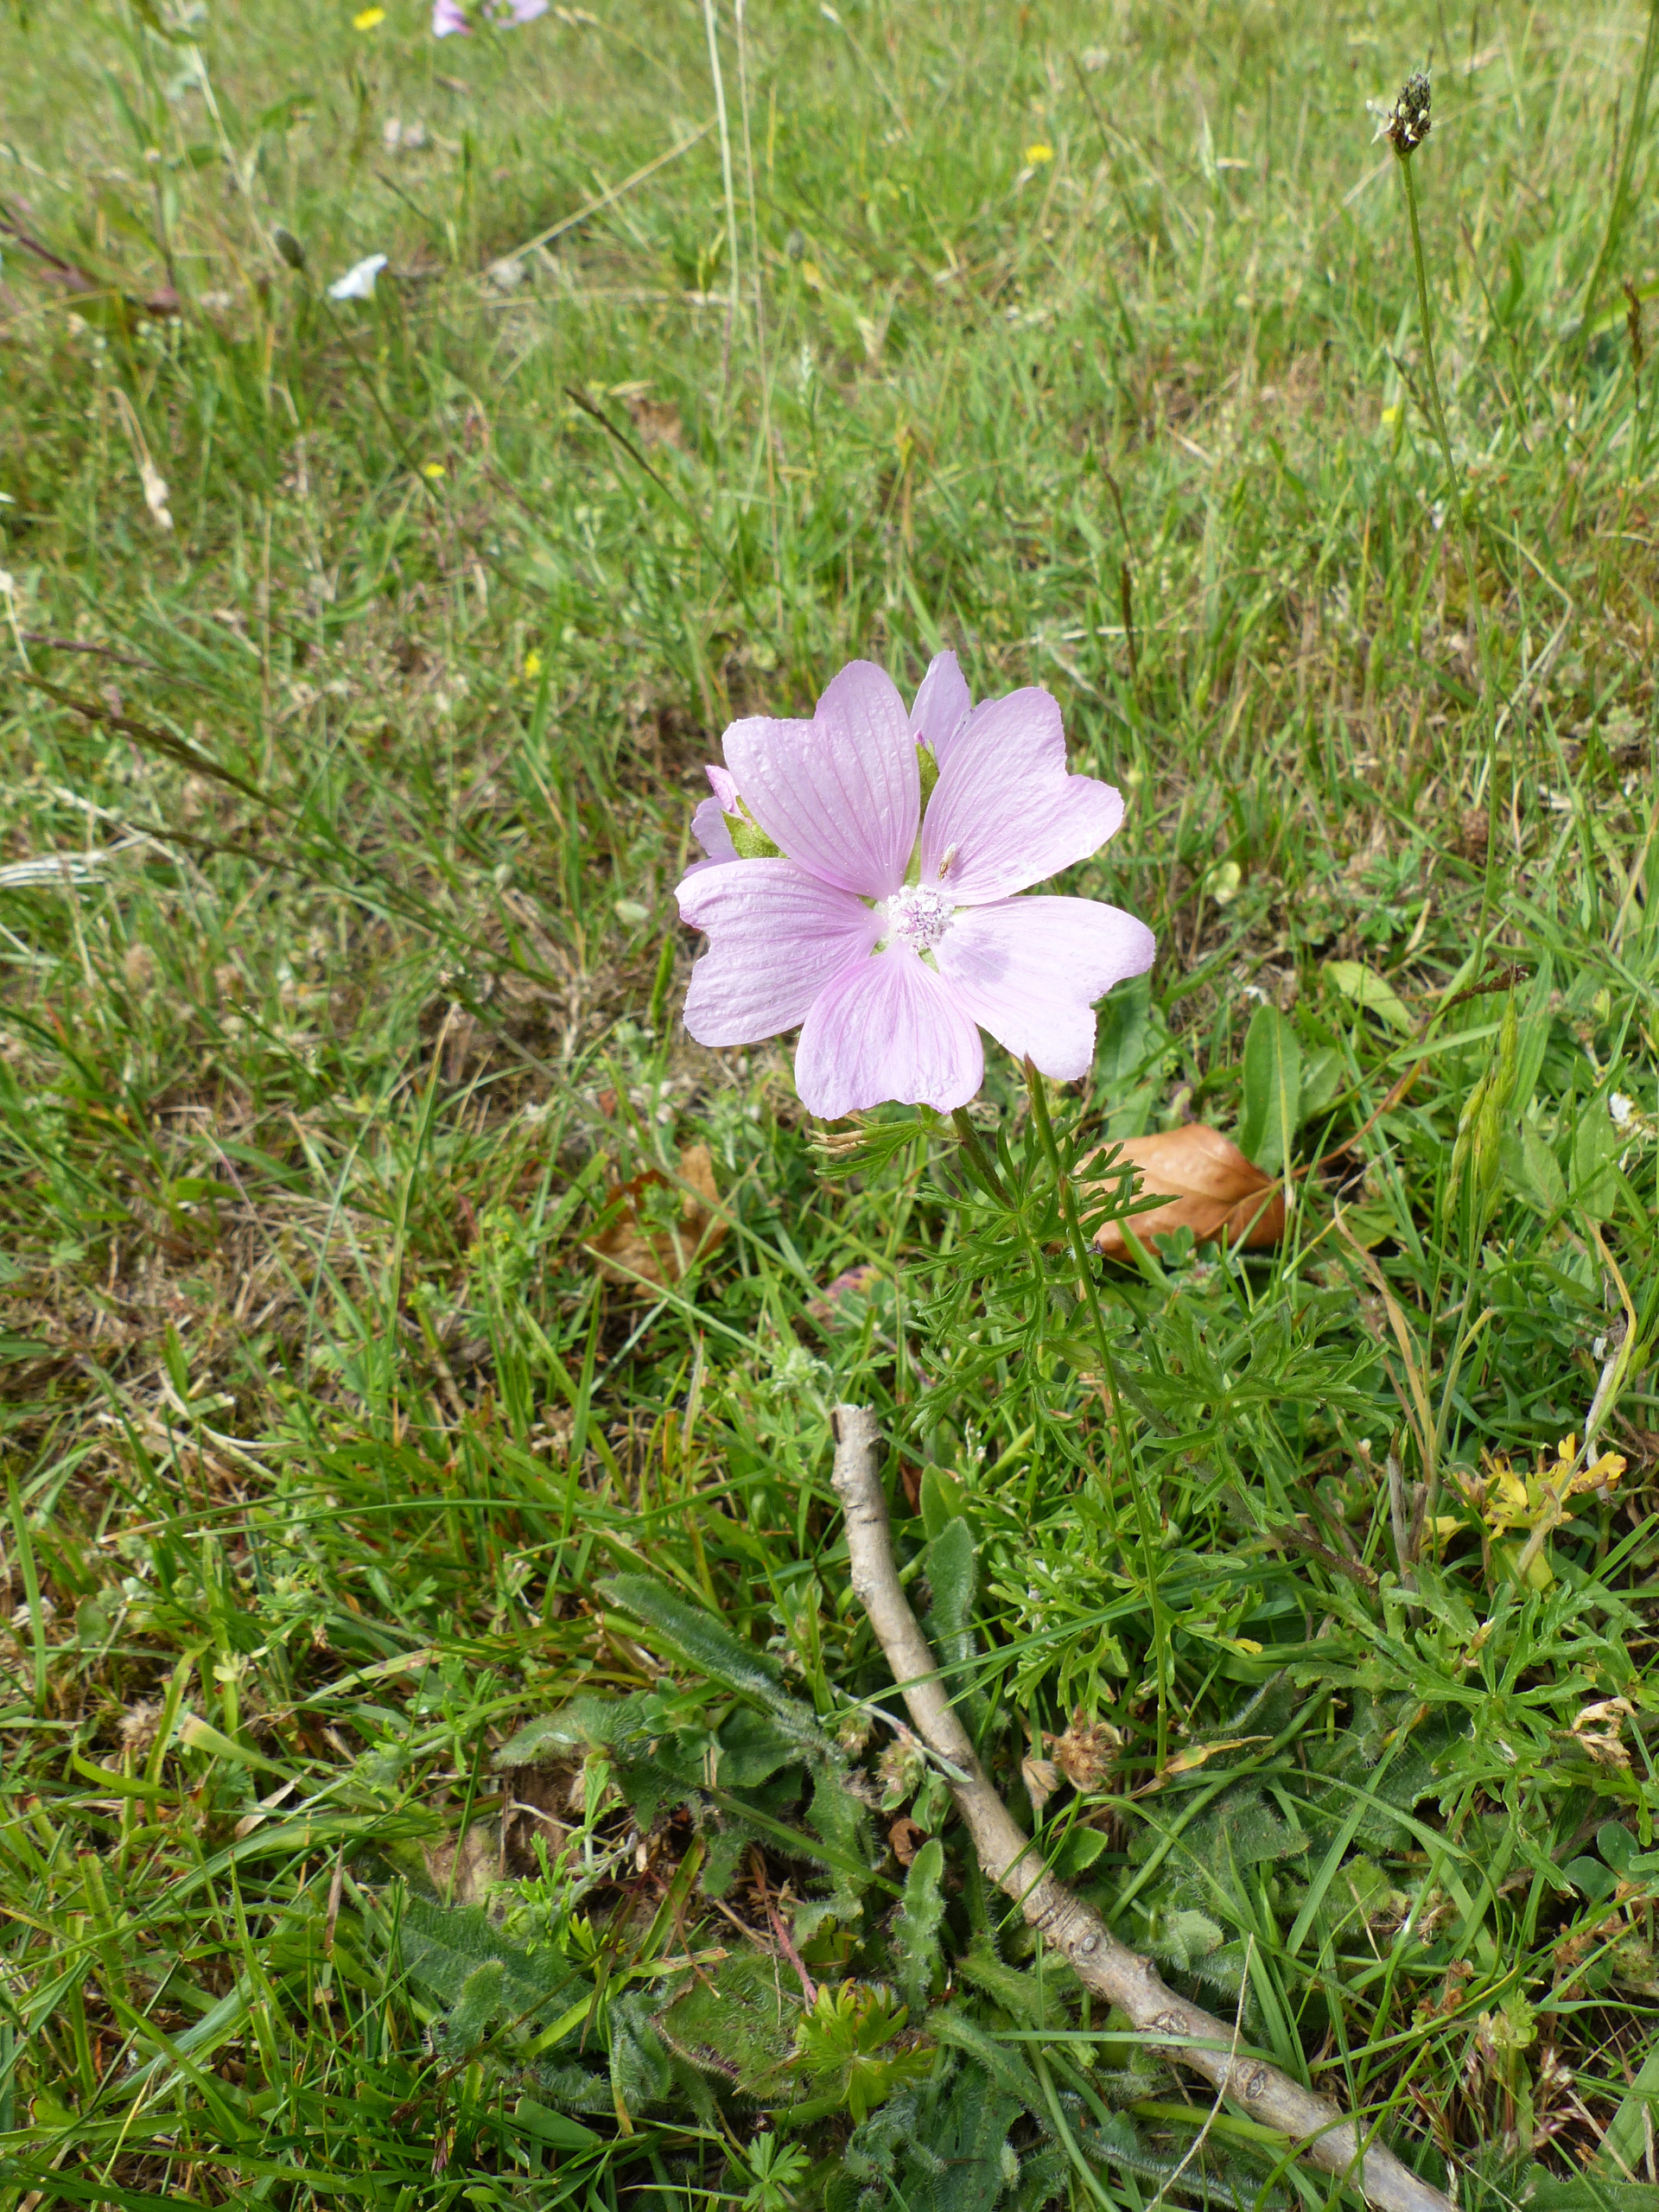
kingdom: Plantae
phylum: Tracheophyta
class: Magnoliopsida
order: Malvales
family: Malvaceae
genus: Malva
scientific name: Malva moschata
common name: Moskus-katost
